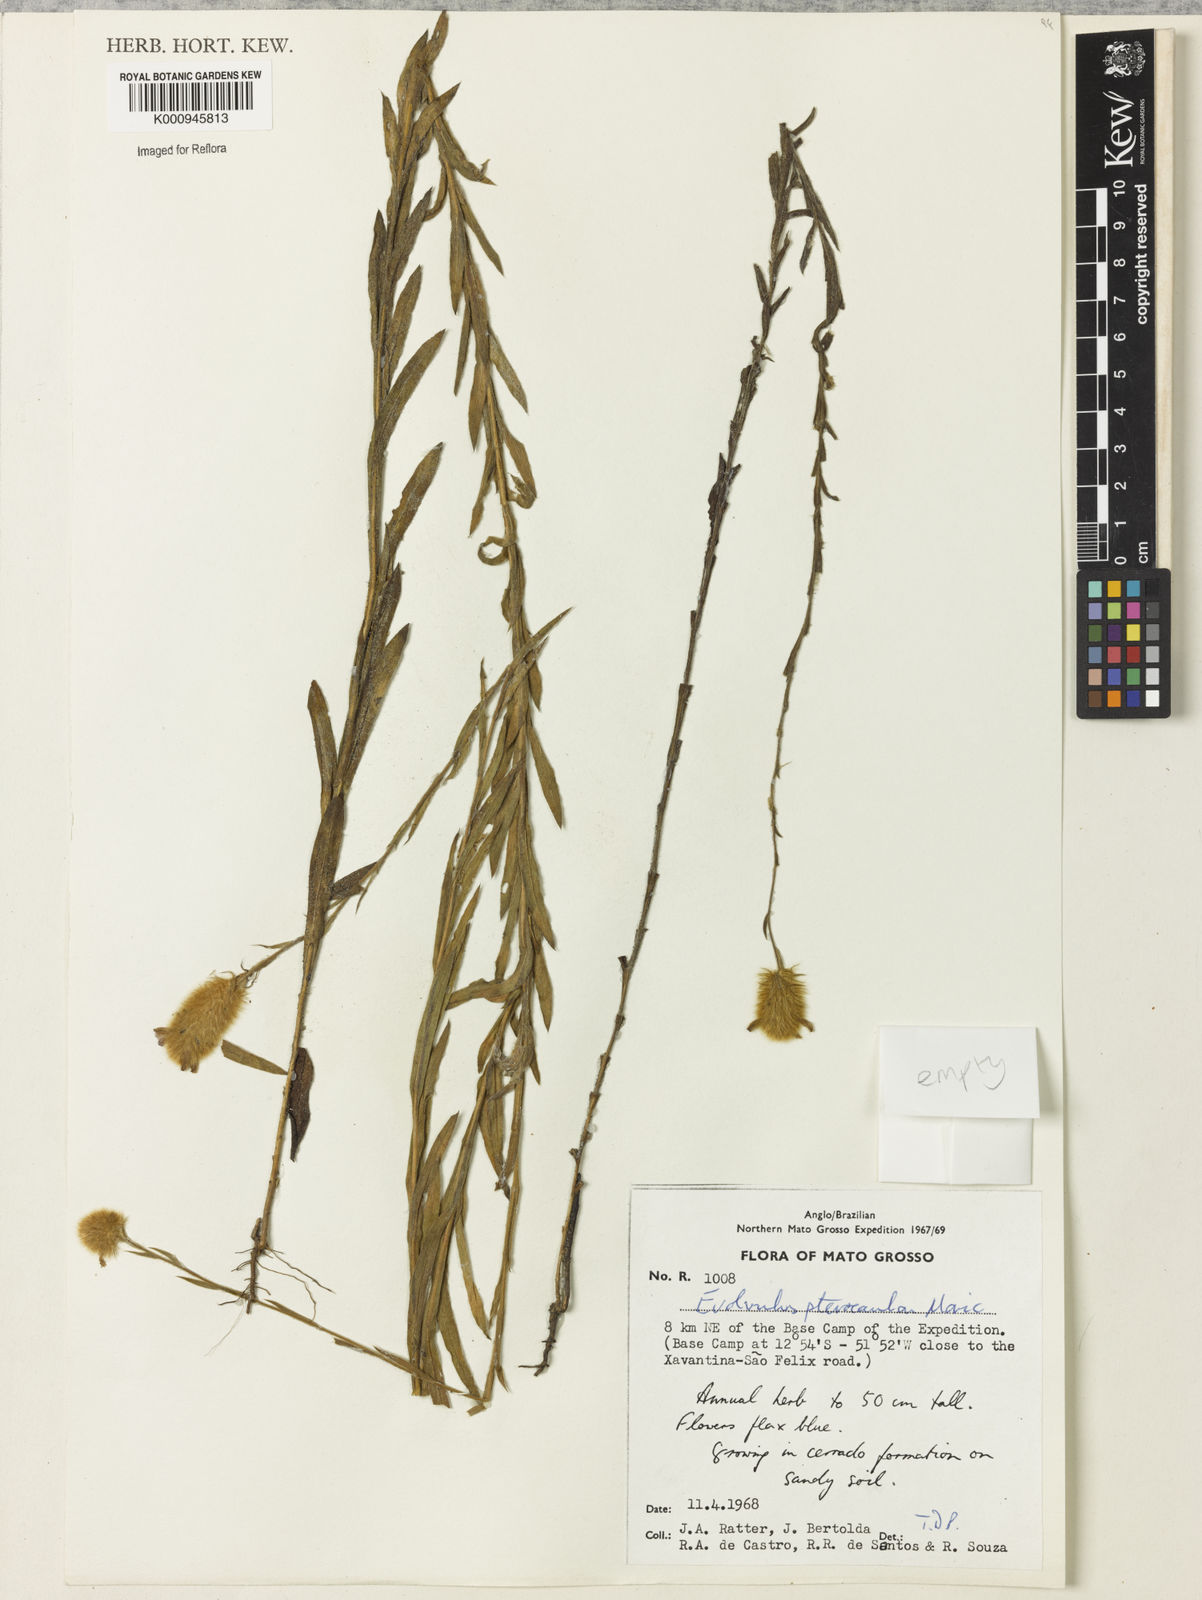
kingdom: Plantae
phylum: Tracheophyta
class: Magnoliopsida
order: Solanales
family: Convolvulaceae
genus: Evolvulus
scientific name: Evolvulus pterocaulon
